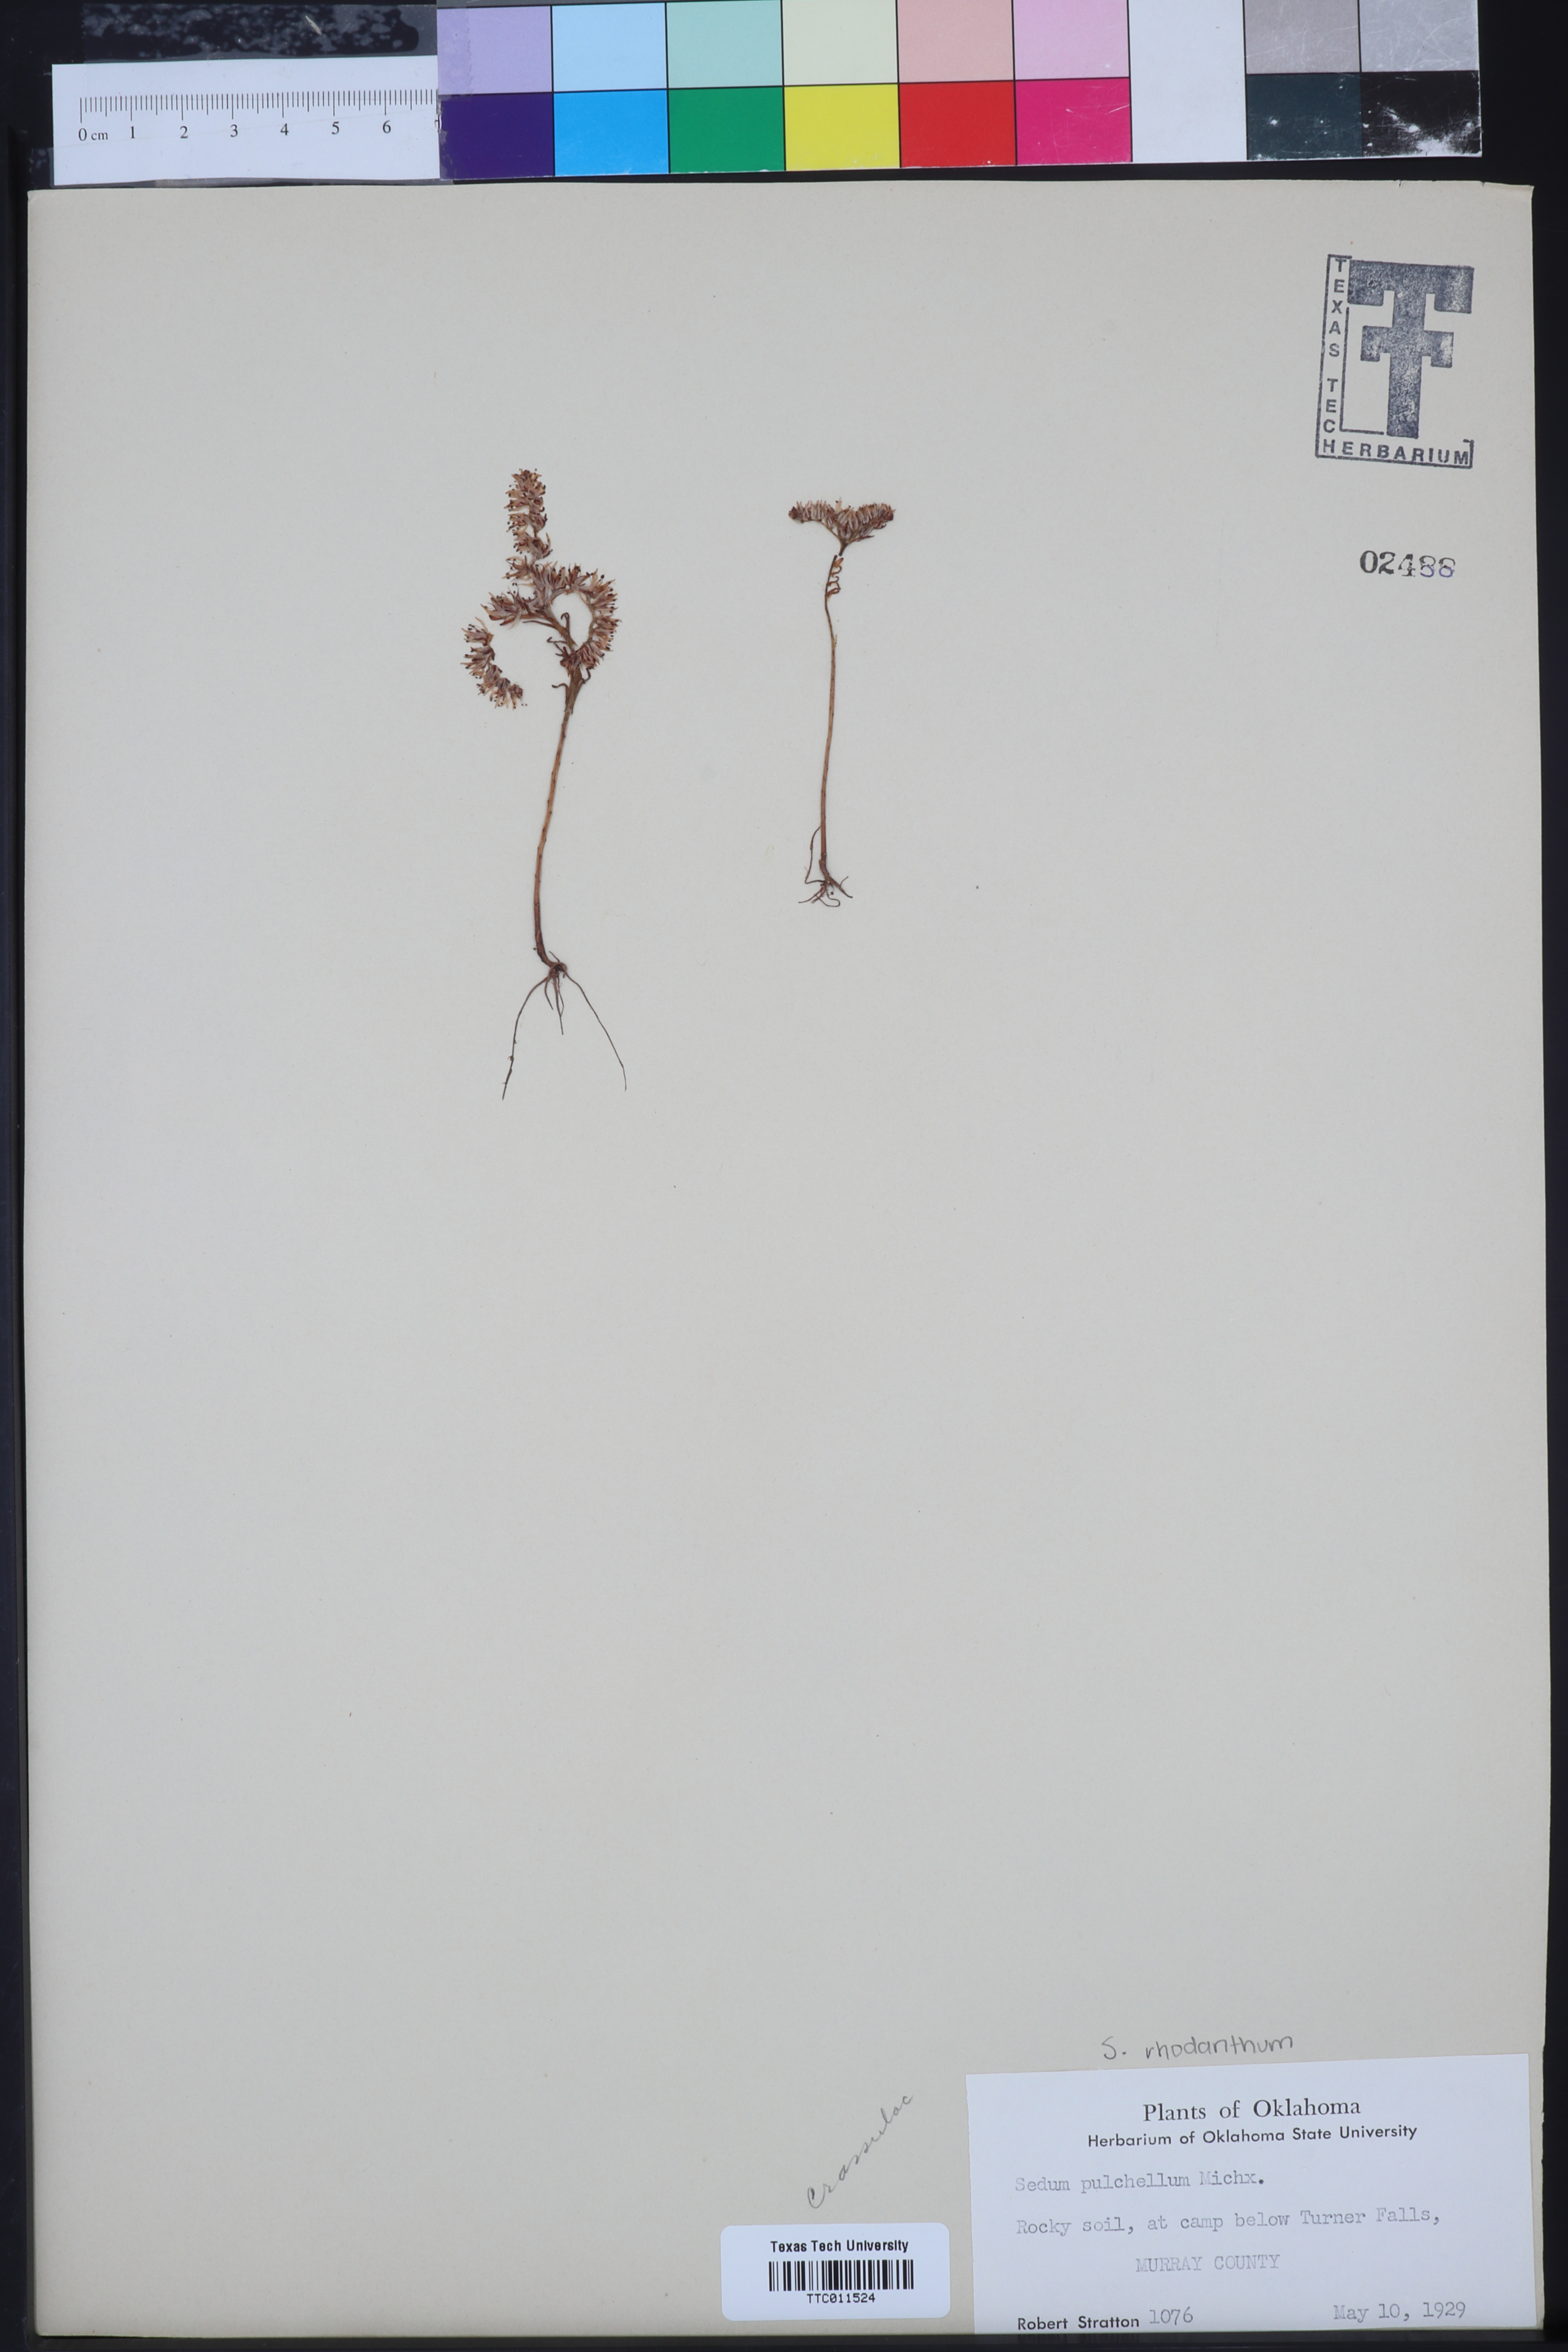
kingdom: Plantae
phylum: Tracheophyta
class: Magnoliopsida
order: Saxifragales
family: Crassulaceae
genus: Sedum
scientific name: Sedum pulchellum
